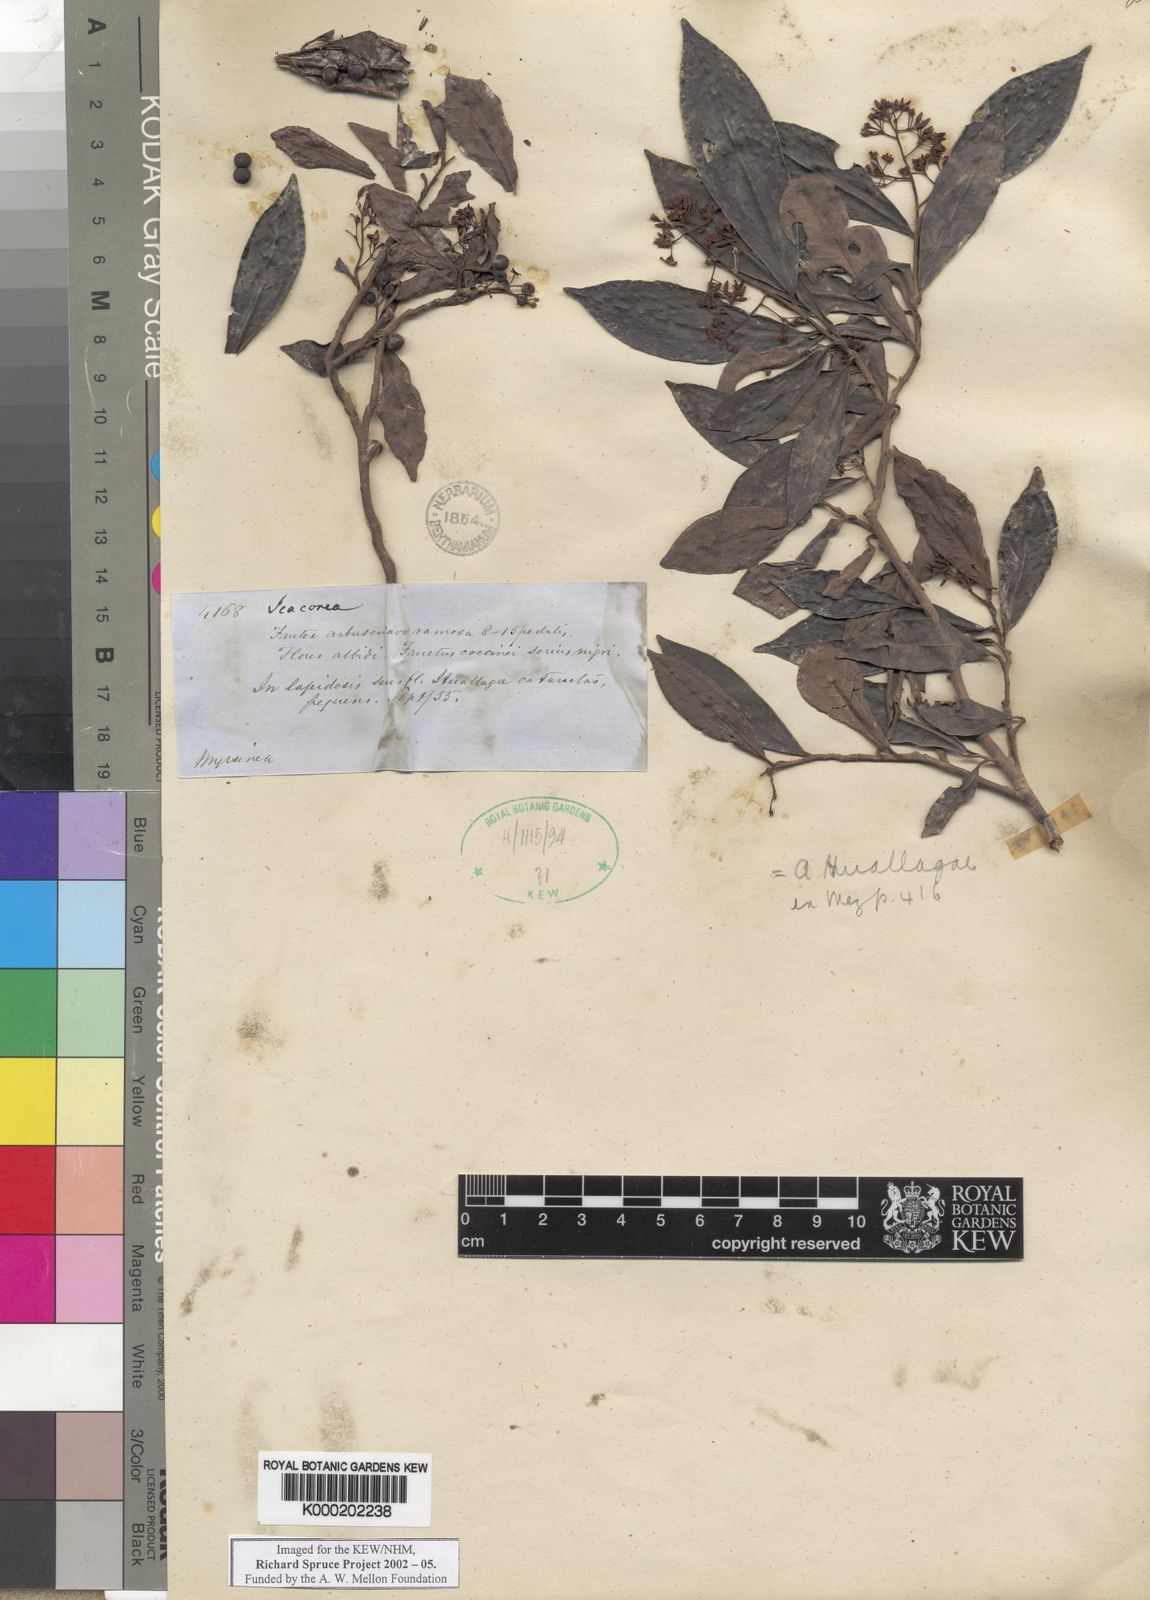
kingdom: Plantae
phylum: Tracheophyta
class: Magnoliopsida
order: Ericales
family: Primulaceae
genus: Ardisia
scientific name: Ardisia huallagae
